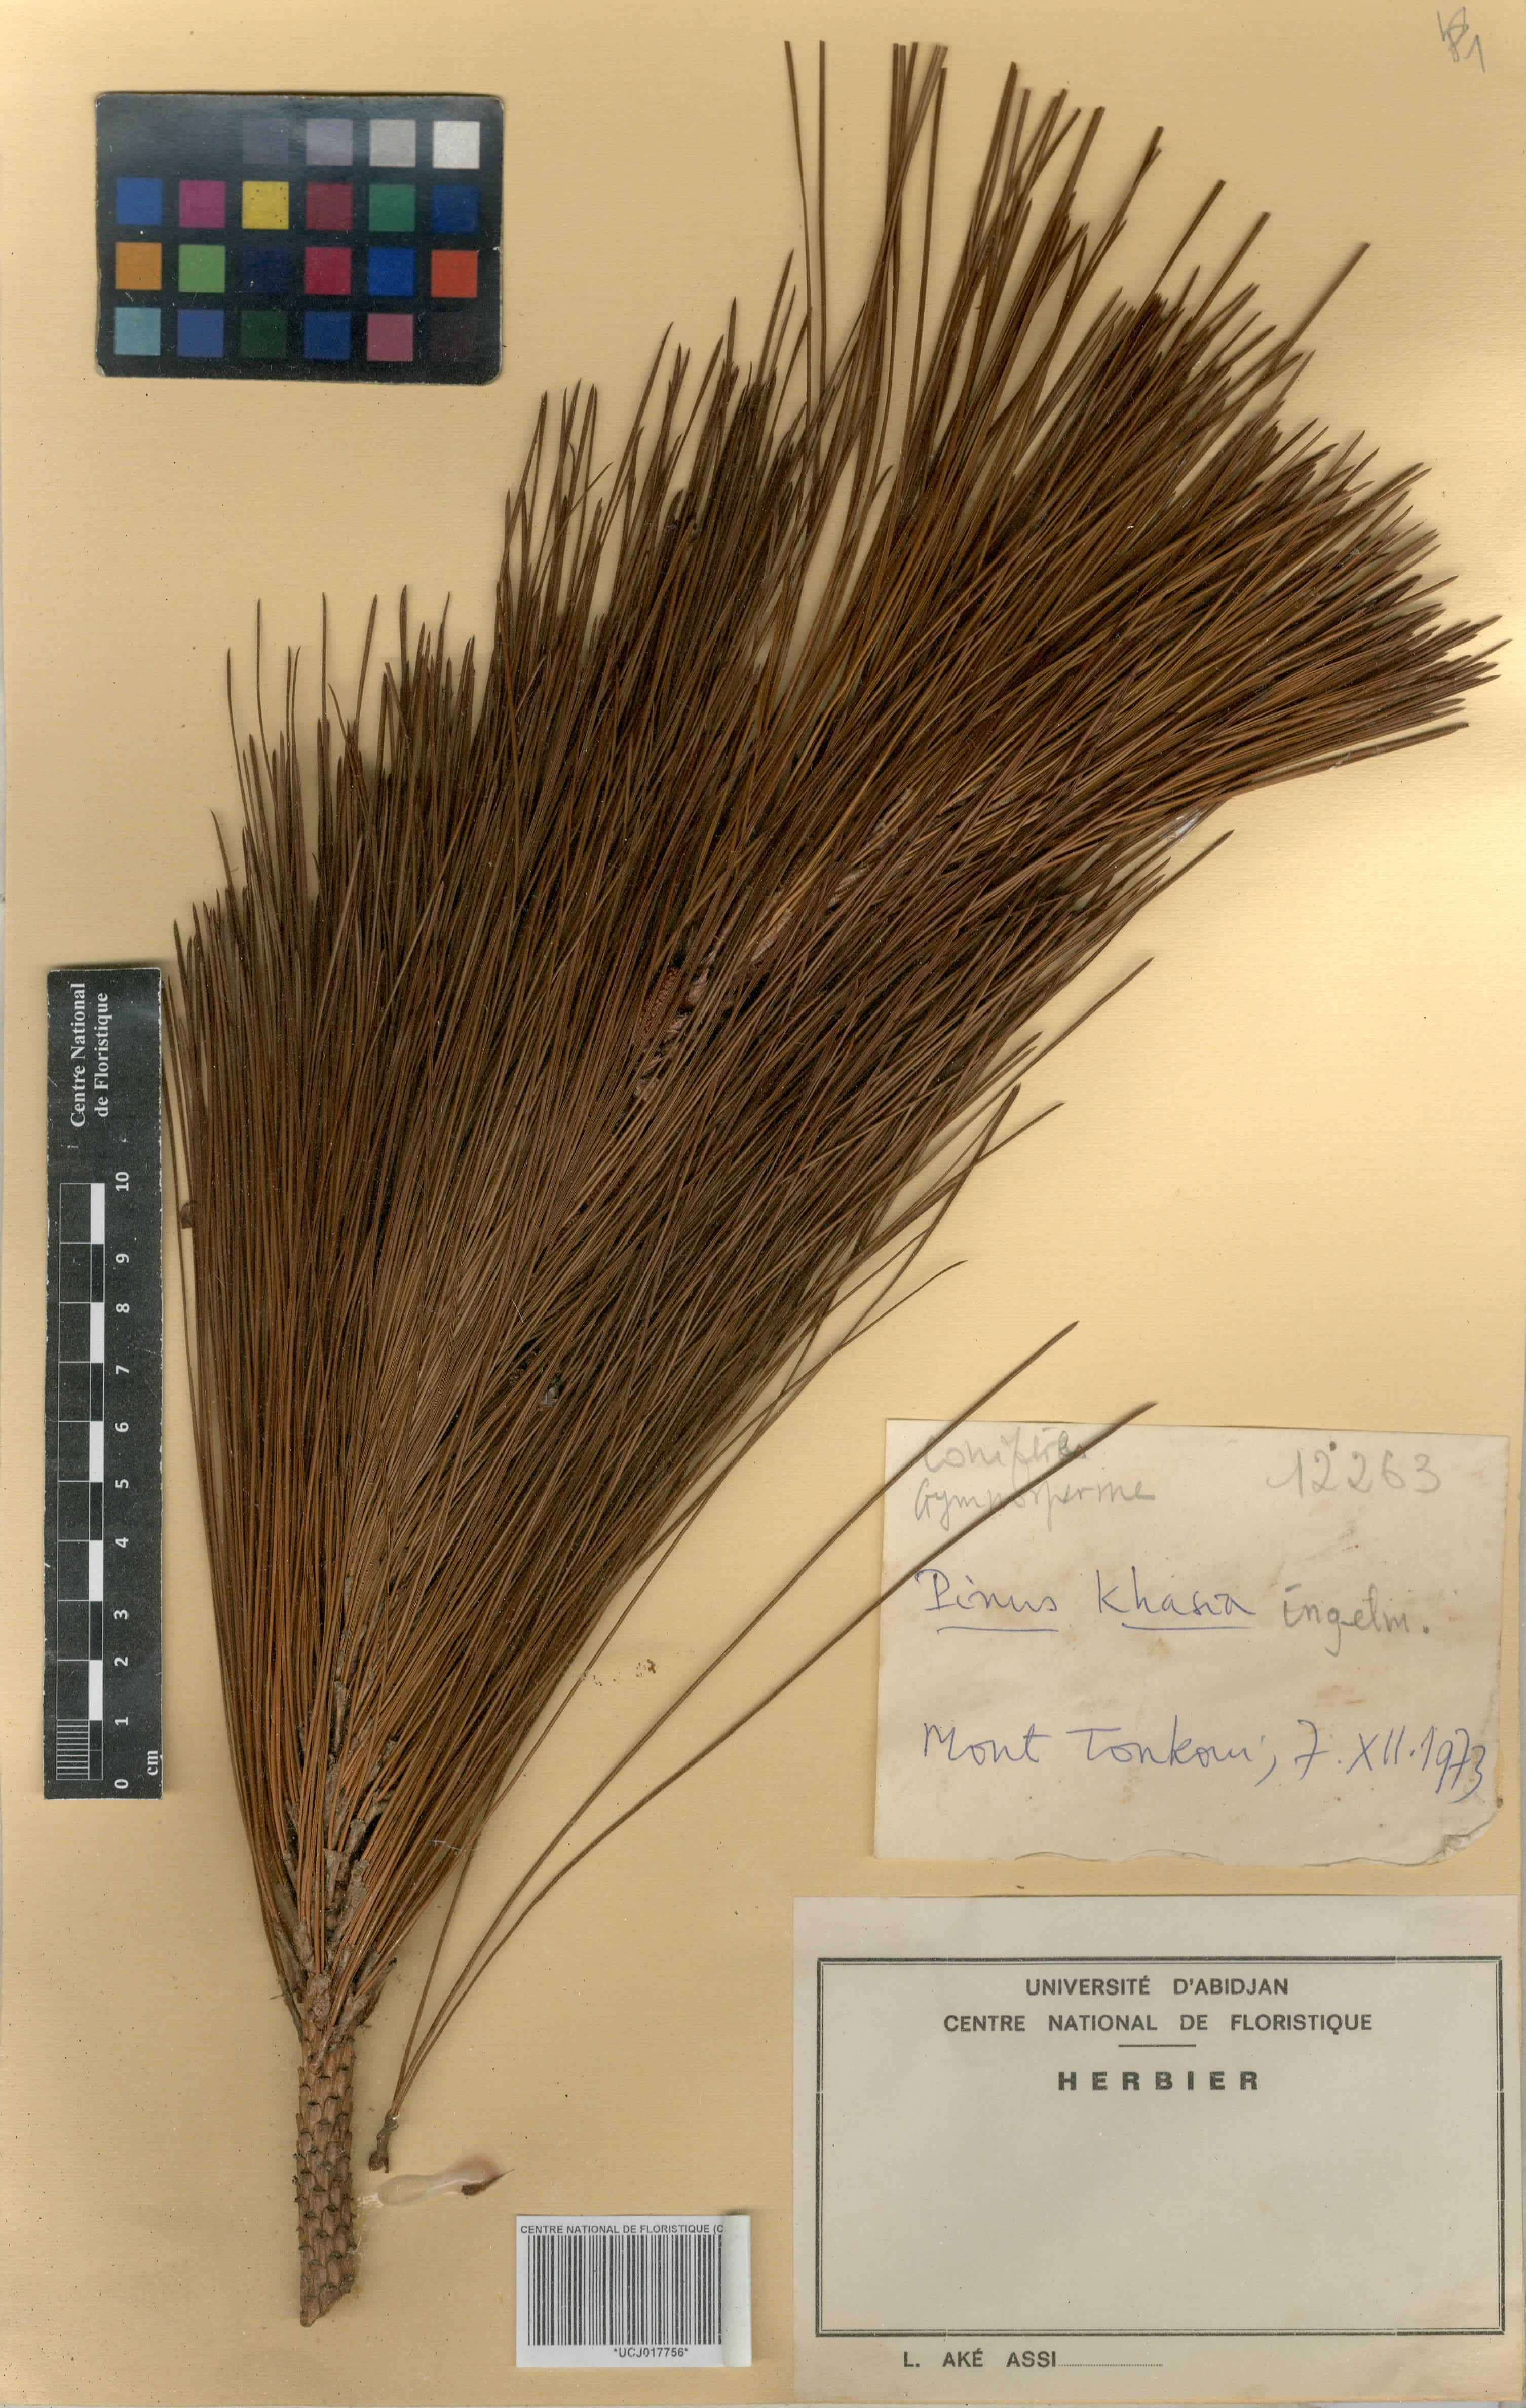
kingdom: Plantae
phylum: Tracheophyta
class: Pinopsida
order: Pinales
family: Pinaceae
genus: Pinus
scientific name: Pinus kesiya
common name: Benguet pine
